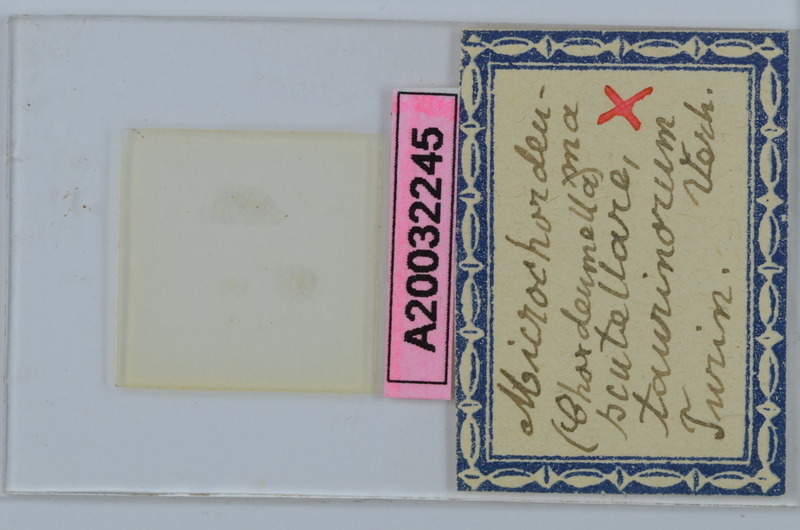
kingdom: Animalia
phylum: Arthropoda
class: Diplopoda
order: Chordeumatida
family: Chordeumatidae
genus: Melogona
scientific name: Melogona scutellaris
